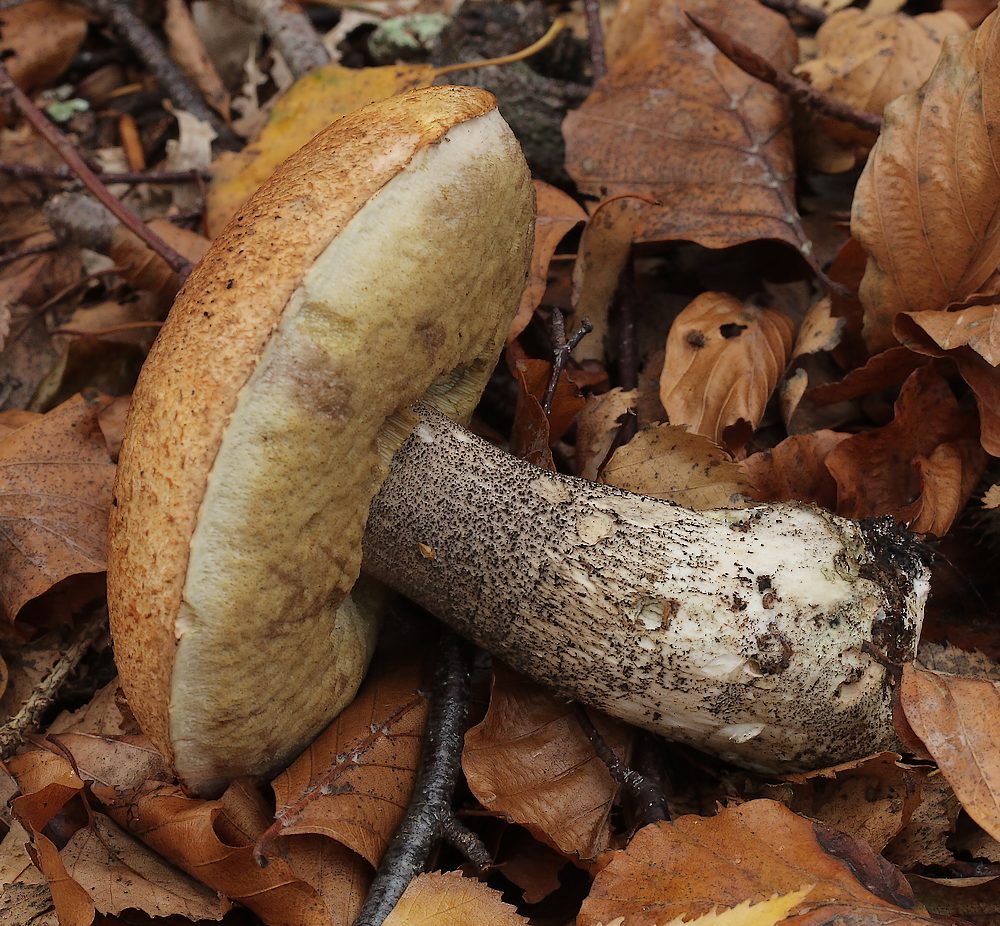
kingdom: Fungi
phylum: Basidiomycota
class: Agaricomycetes
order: Boletales
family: Boletaceae
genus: Leccinum
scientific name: Leccinum versipelle
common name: orange skælrørhat
